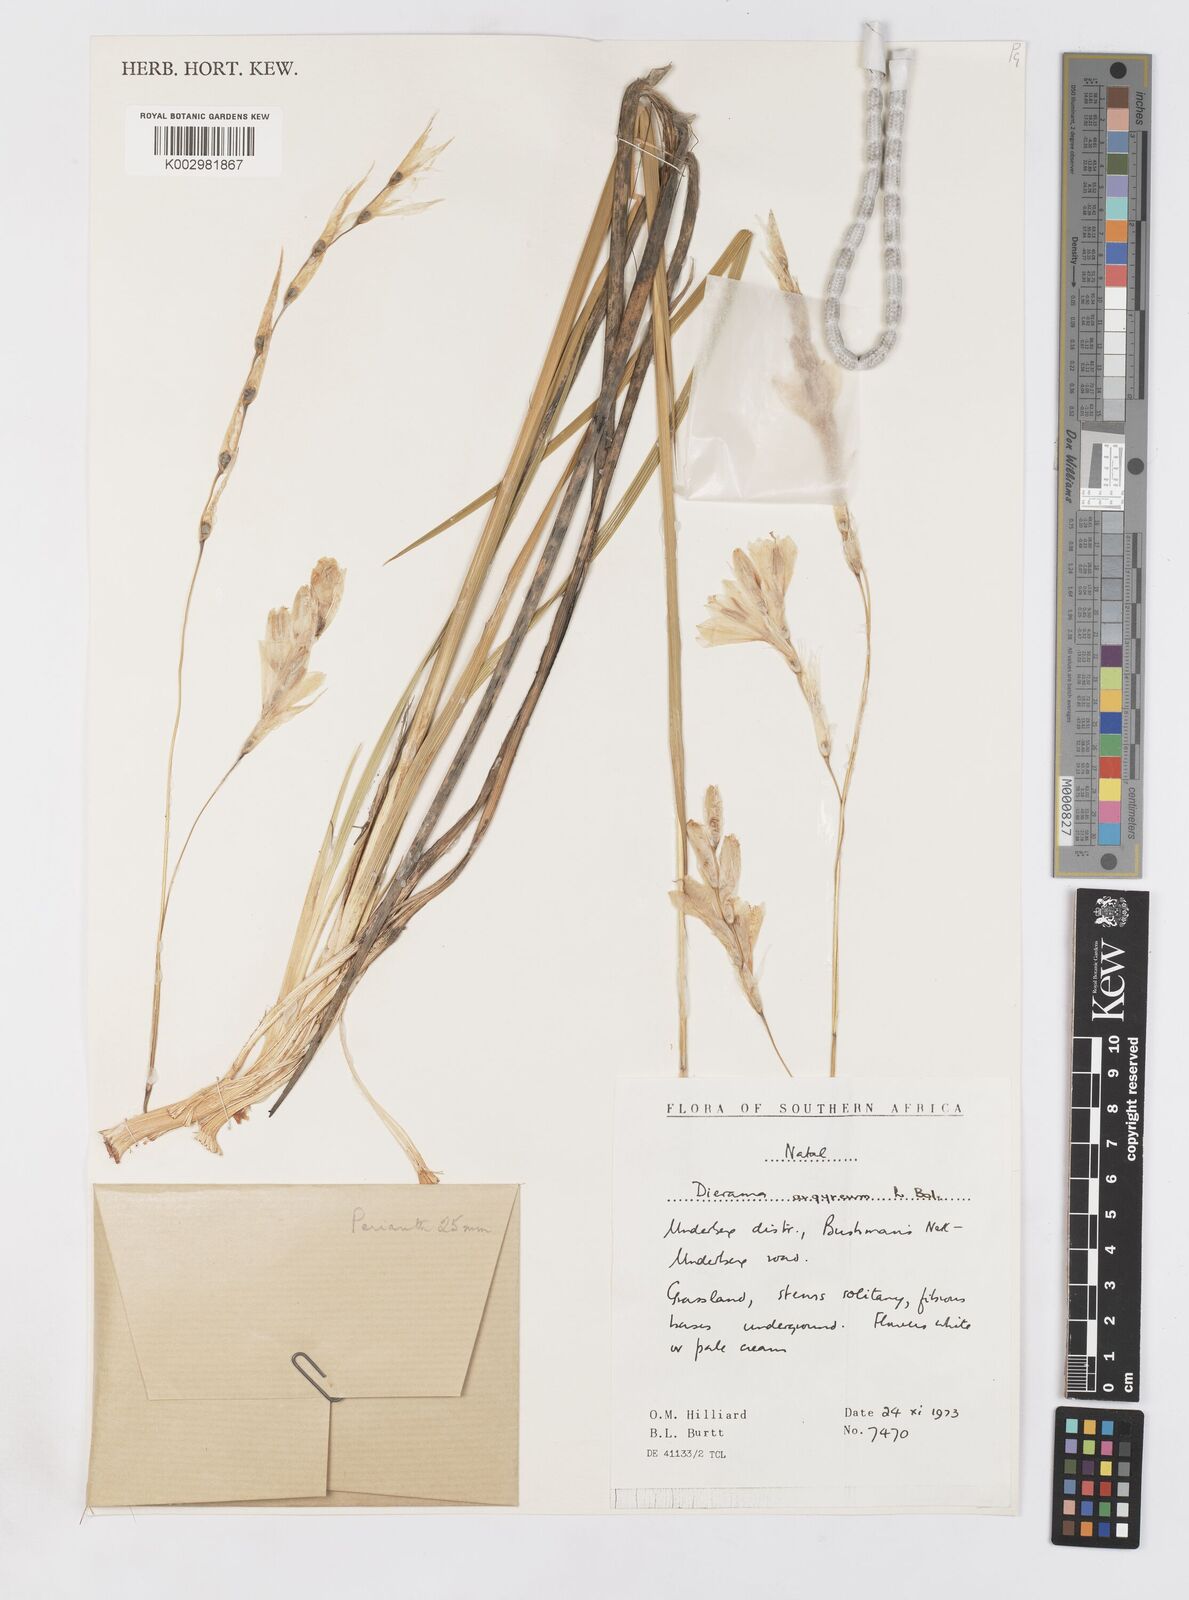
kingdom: Plantae
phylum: Tracheophyta
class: Liliopsida
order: Asparagales
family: Iridaceae
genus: Dierama
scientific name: Dierama argyreum
